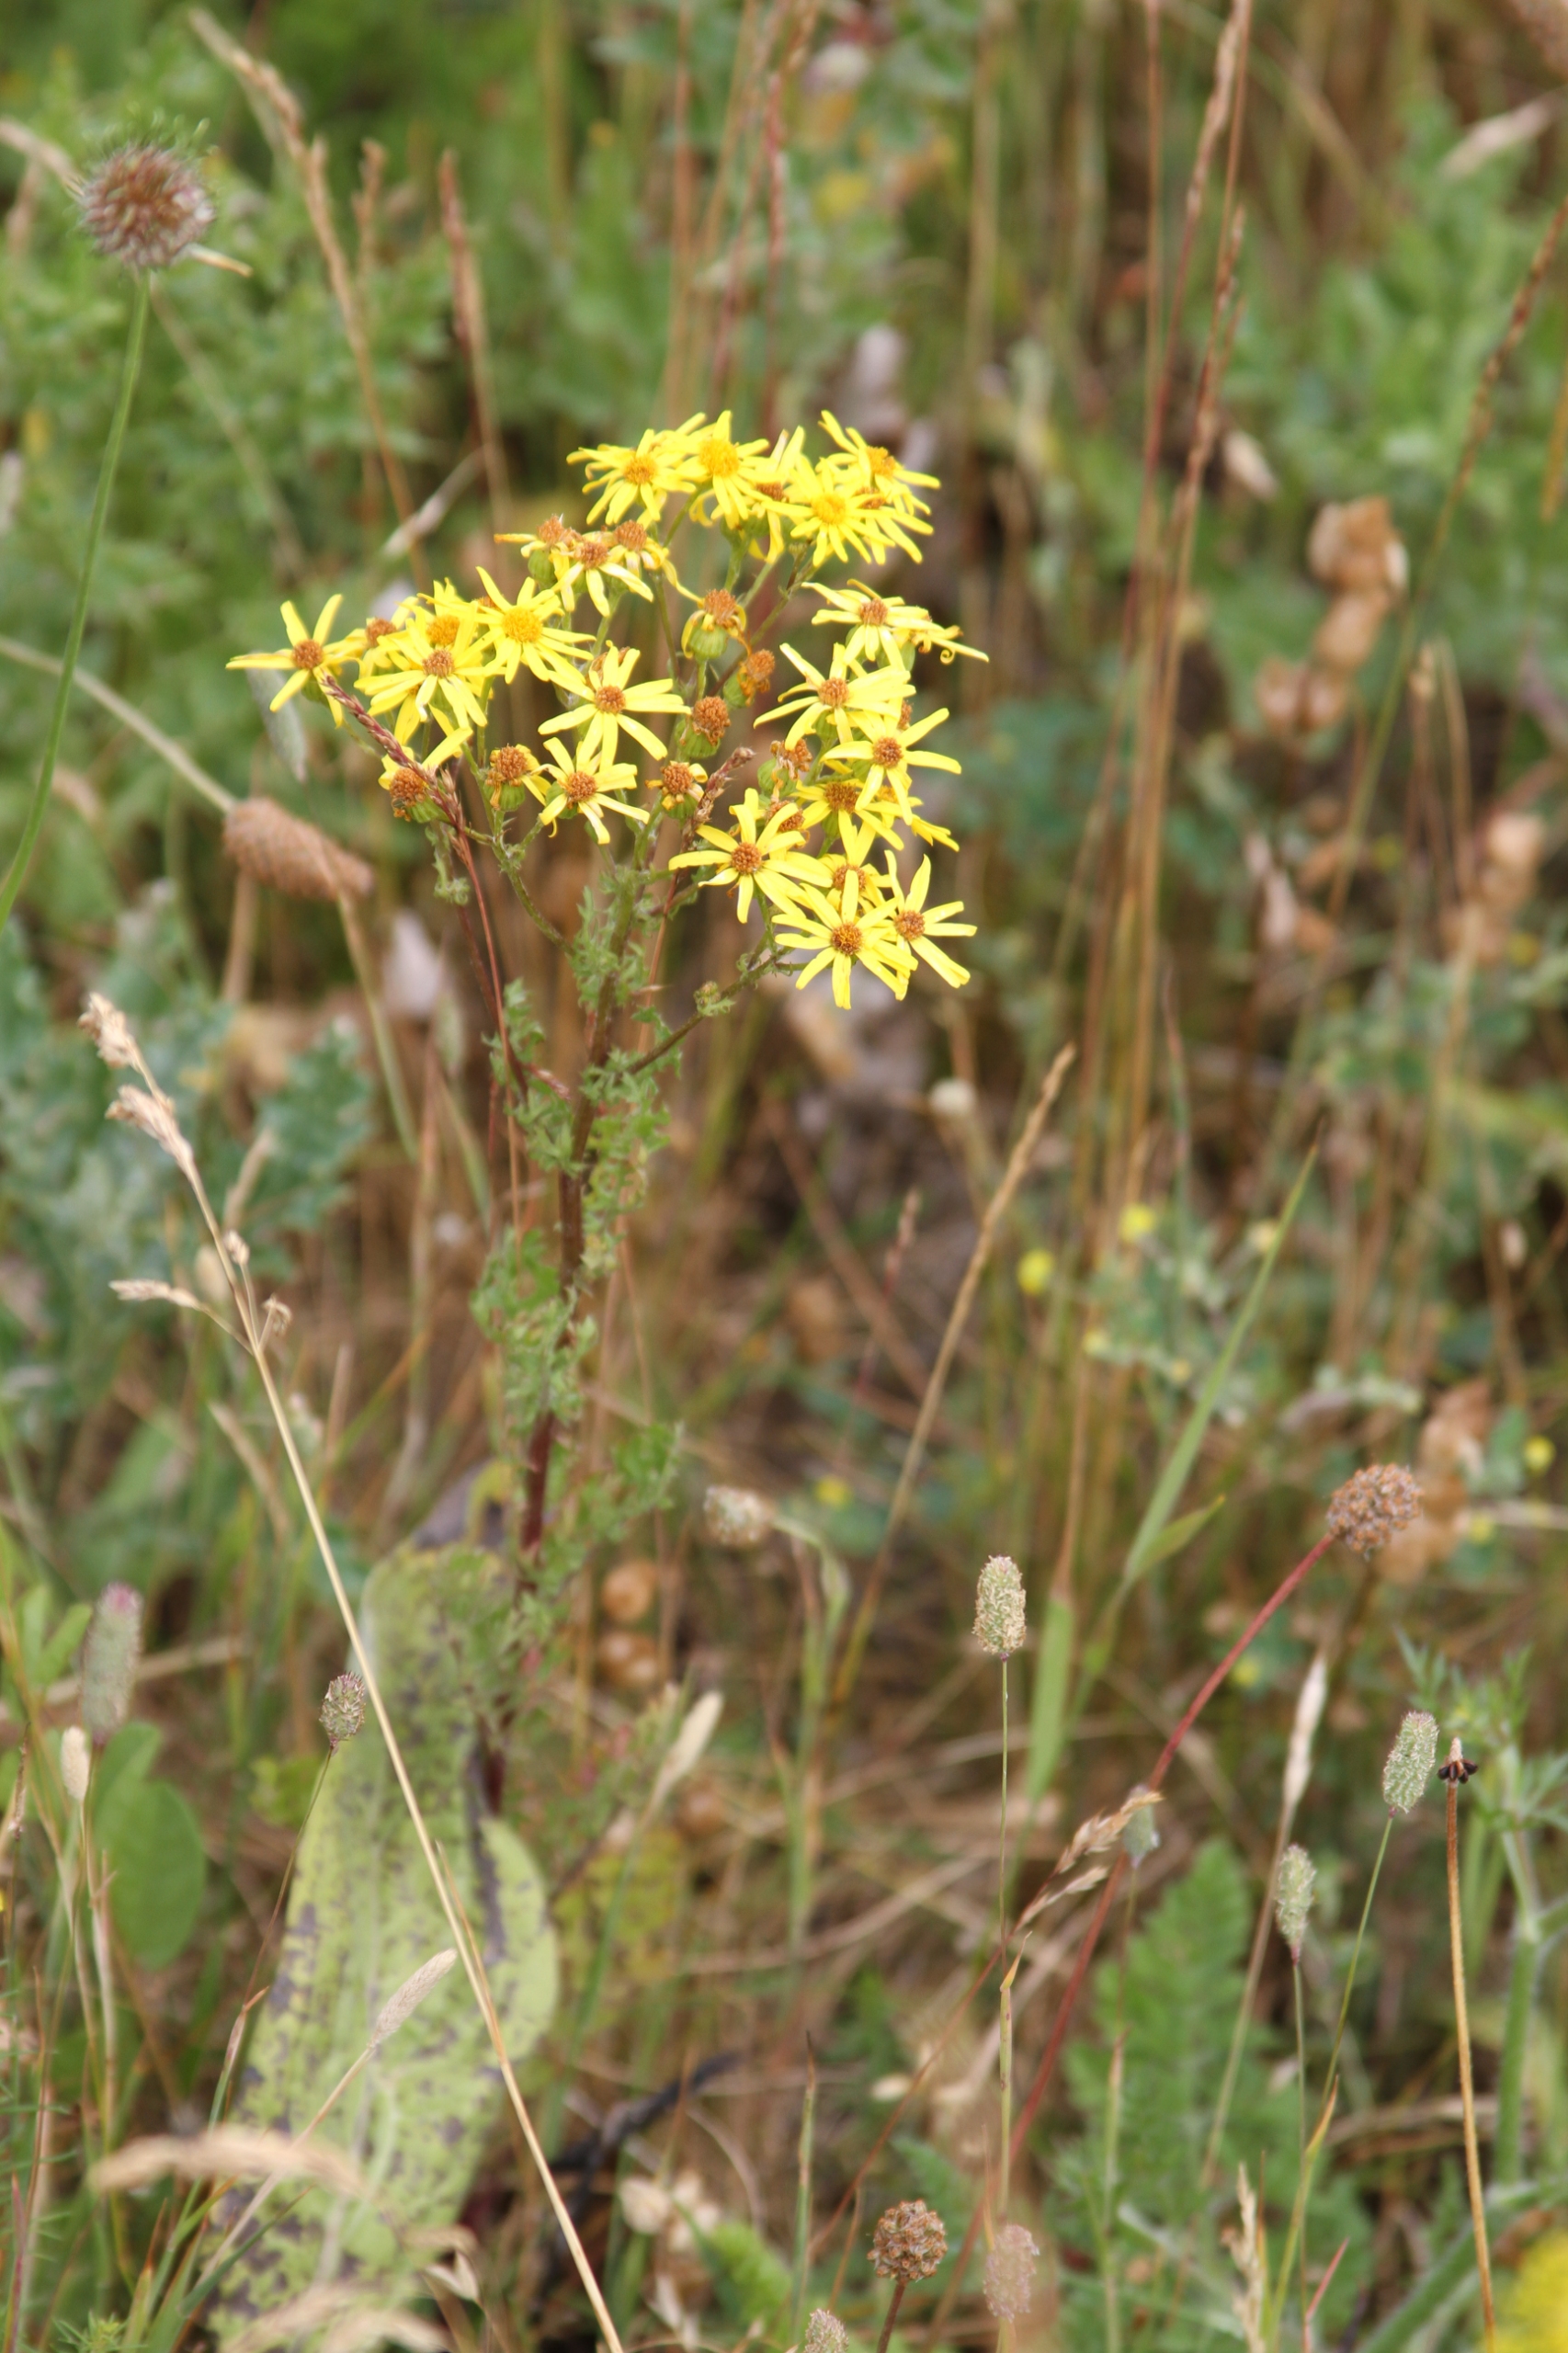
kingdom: Plantae
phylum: Tracheophyta
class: Magnoliopsida
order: Asterales
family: Asteraceae
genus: Jacobaea
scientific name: Jacobaea vulgaris
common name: Eng-brandbæger
